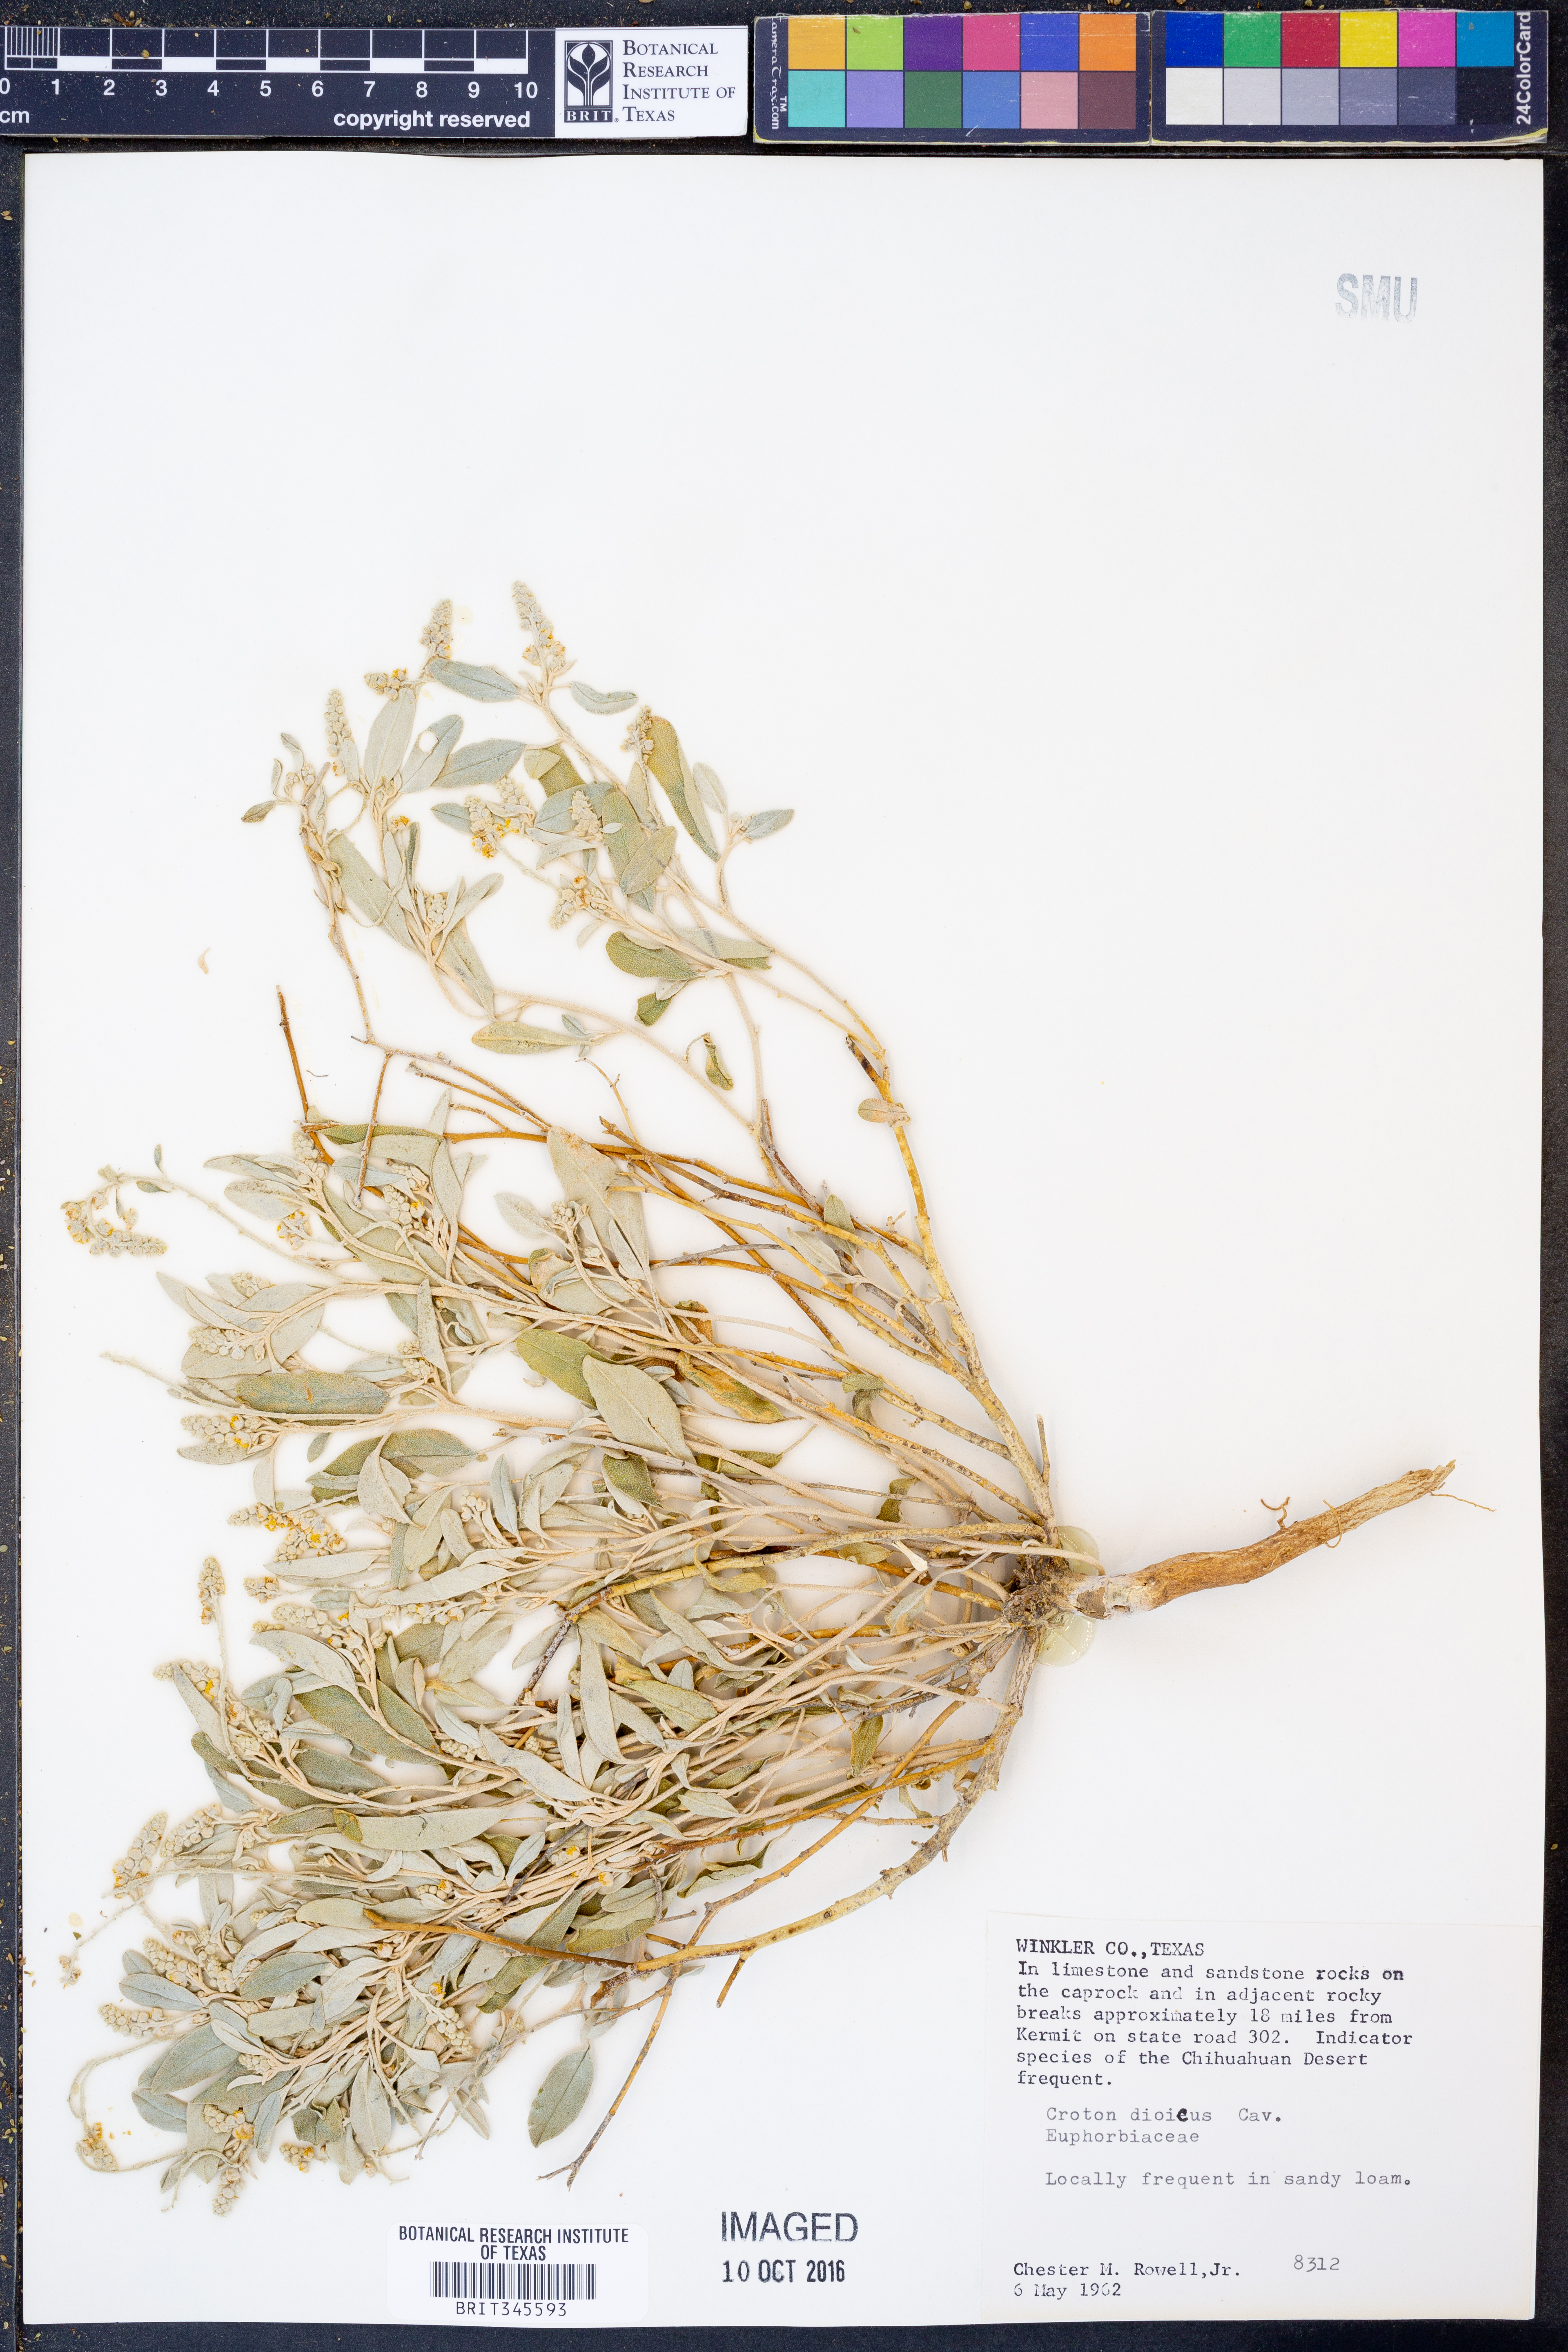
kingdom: Plantae
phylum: Tracheophyta
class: Magnoliopsida
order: Malpighiales
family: Euphorbiaceae
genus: Croton
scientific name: Croton dioicus
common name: Grassland croton
